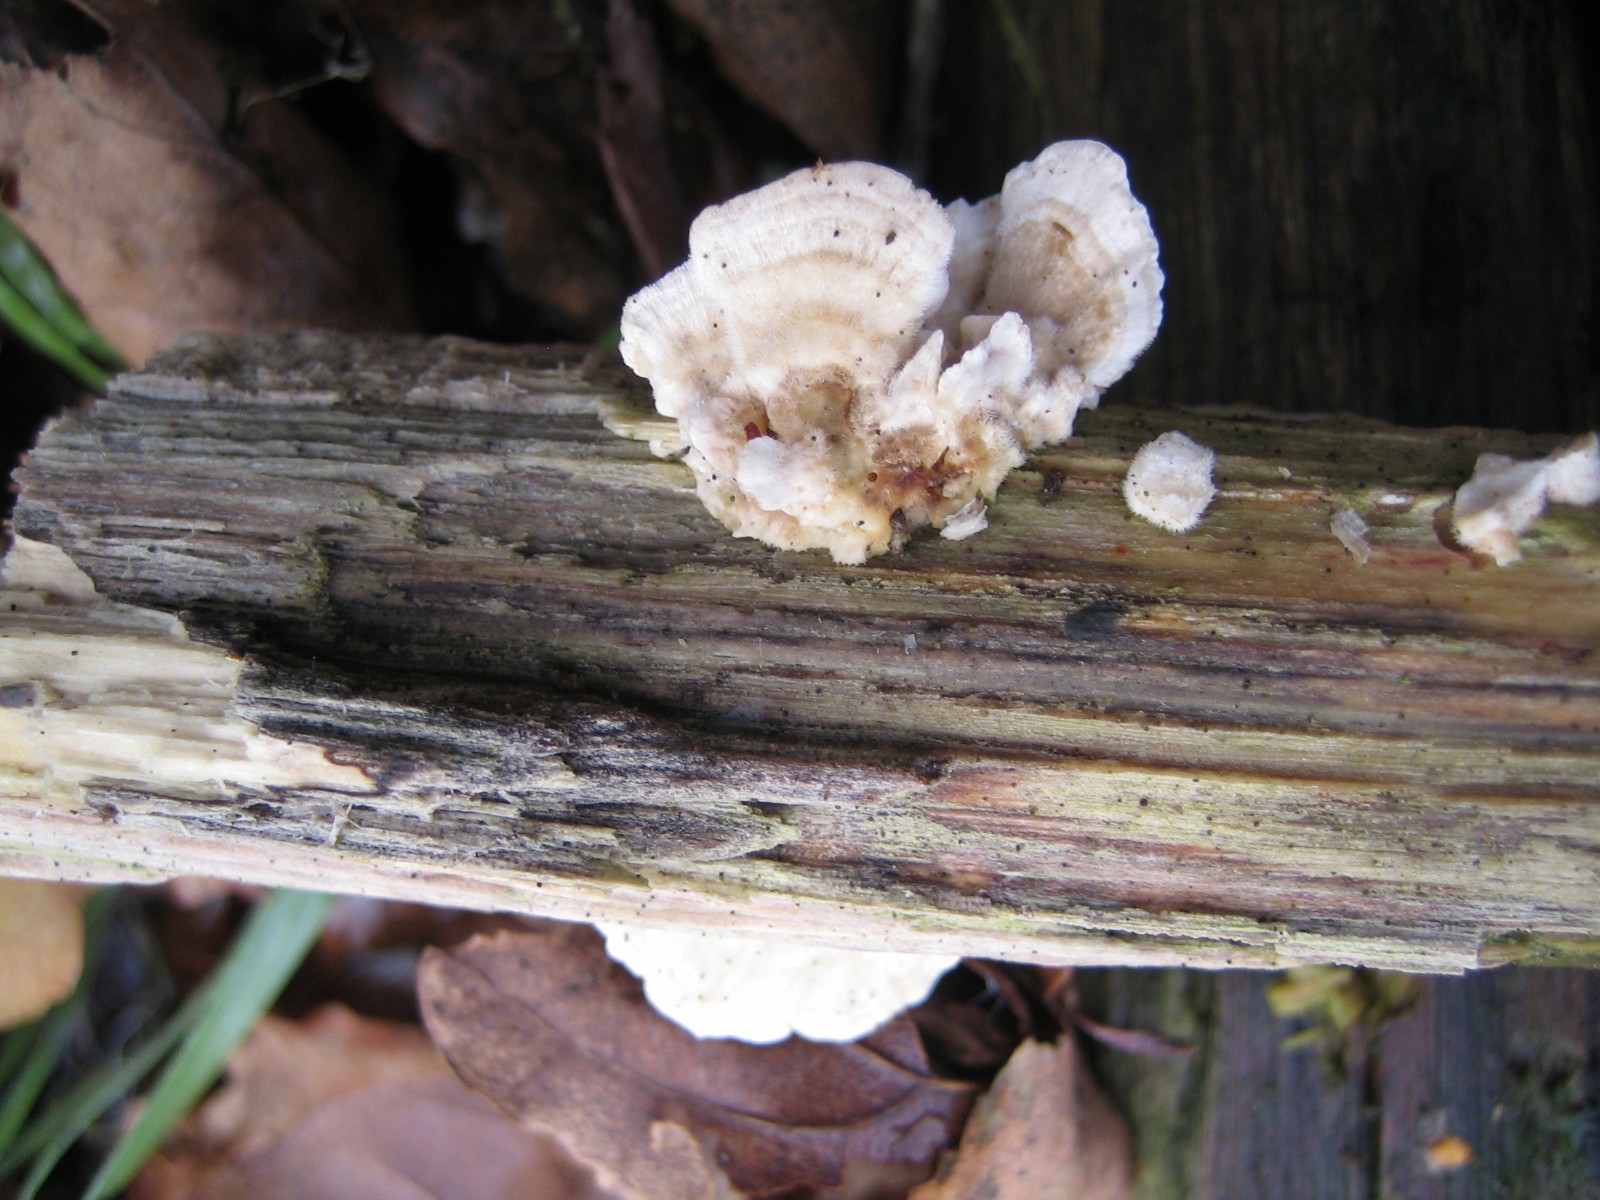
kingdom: Fungi
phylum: Basidiomycota
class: Agaricomycetes
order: Polyporales
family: Polyporaceae
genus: Trametes
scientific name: Trametes hirsuta
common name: håret læderporesvamp
